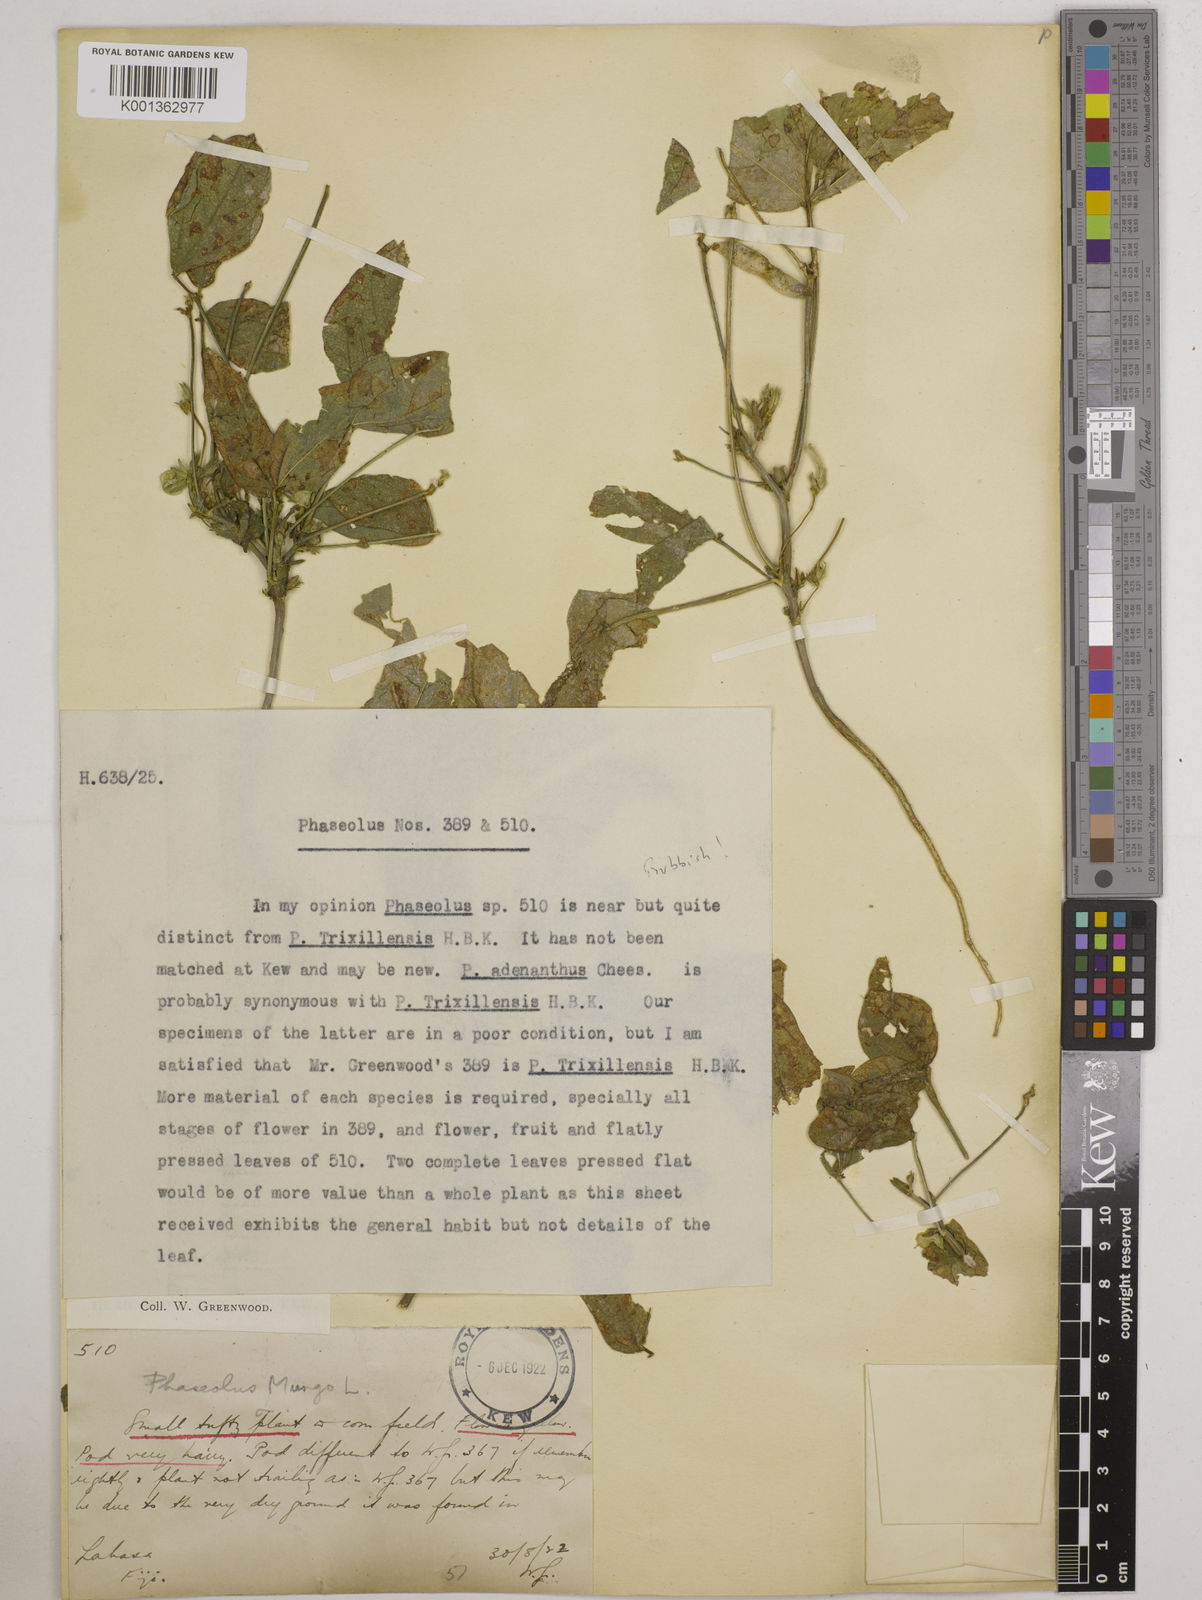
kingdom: Plantae
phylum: Tracheophyta
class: Magnoliopsida
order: Fabales
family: Fabaceae
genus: Vigna
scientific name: Vigna mungo
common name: Black gram
